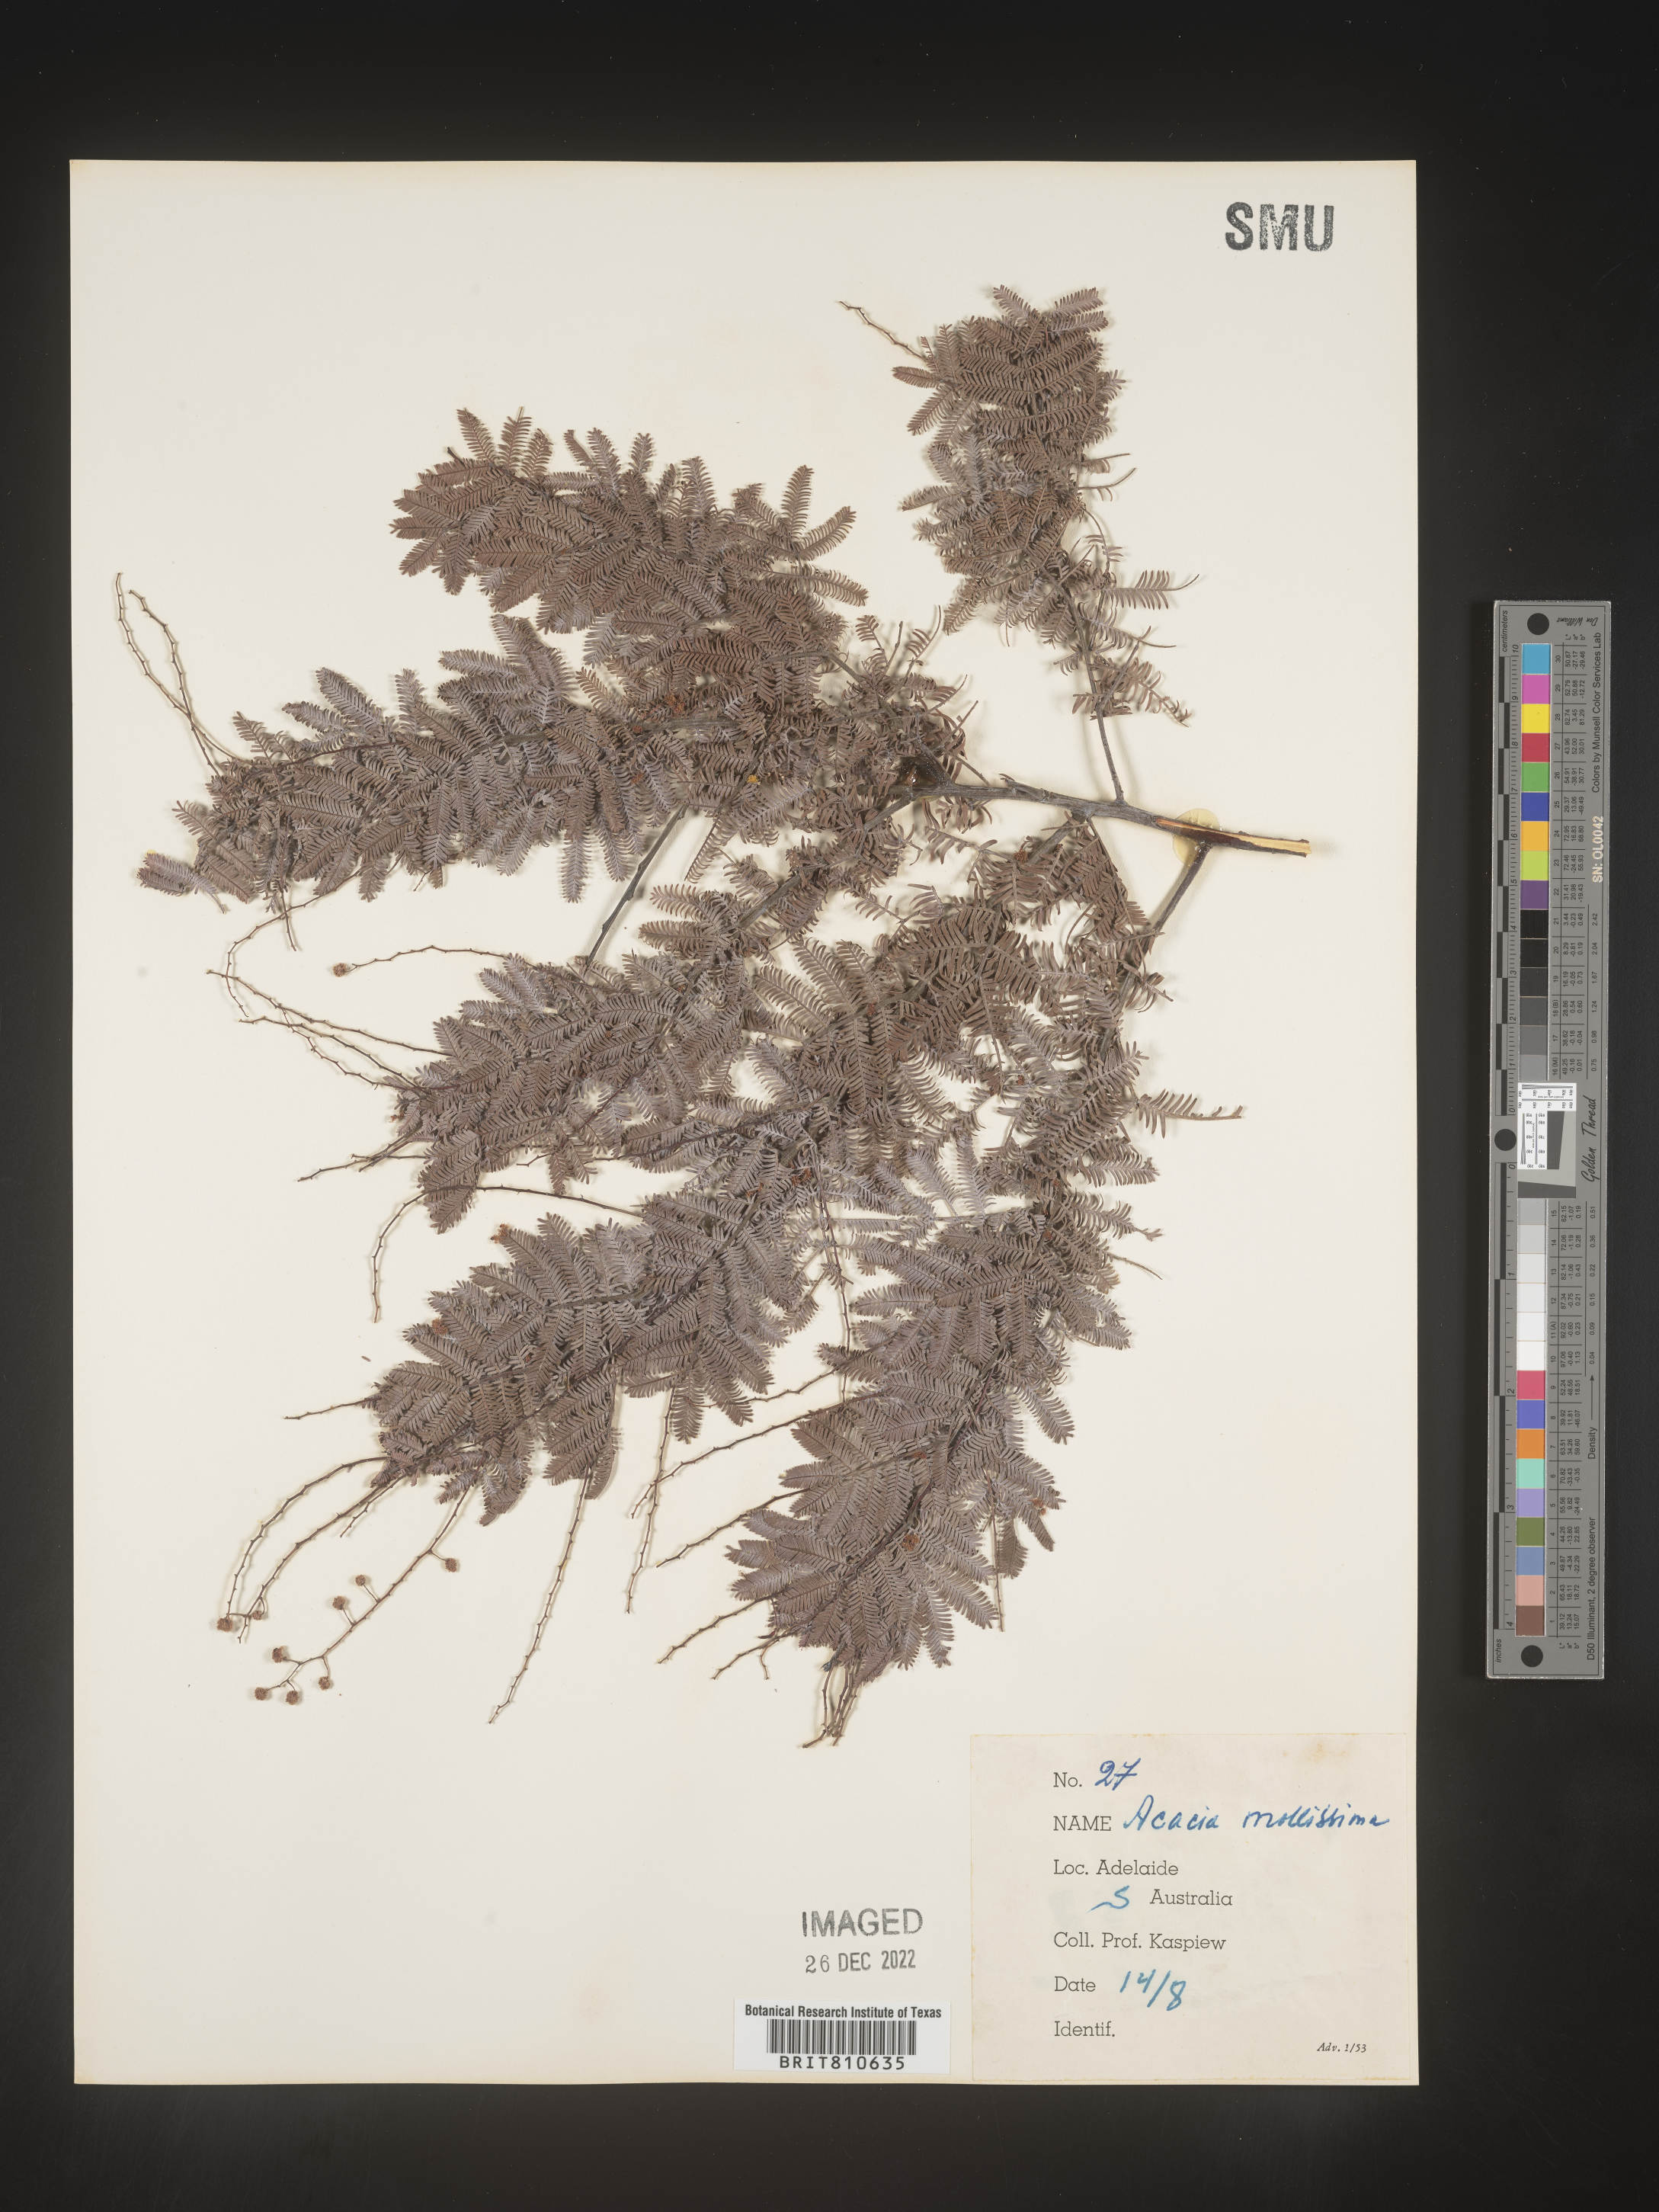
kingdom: Plantae
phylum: Tracheophyta
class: Magnoliopsida
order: Fabales
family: Fabaceae
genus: Acacia
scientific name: Acacia
